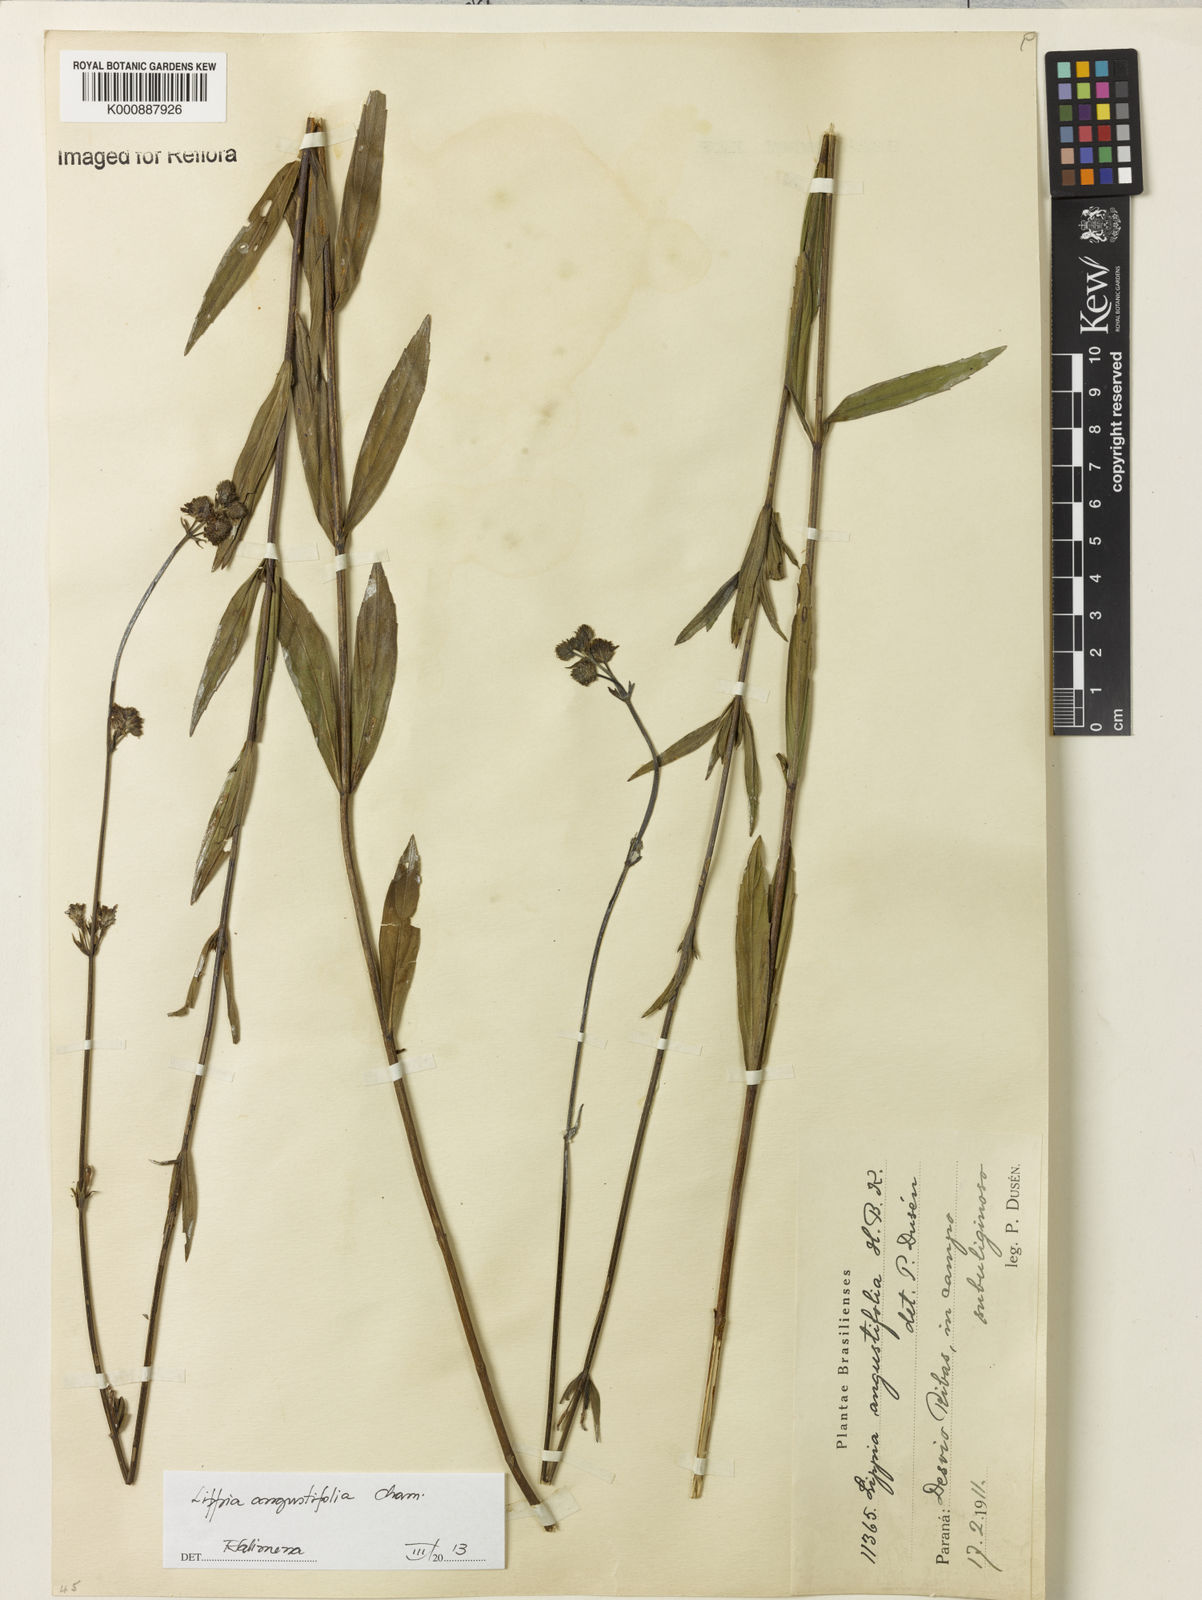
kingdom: Plantae
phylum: Tracheophyta
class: Magnoliopsida
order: Lamiales
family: Verbenaceae
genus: Lippia
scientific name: Lippia angustifolia
